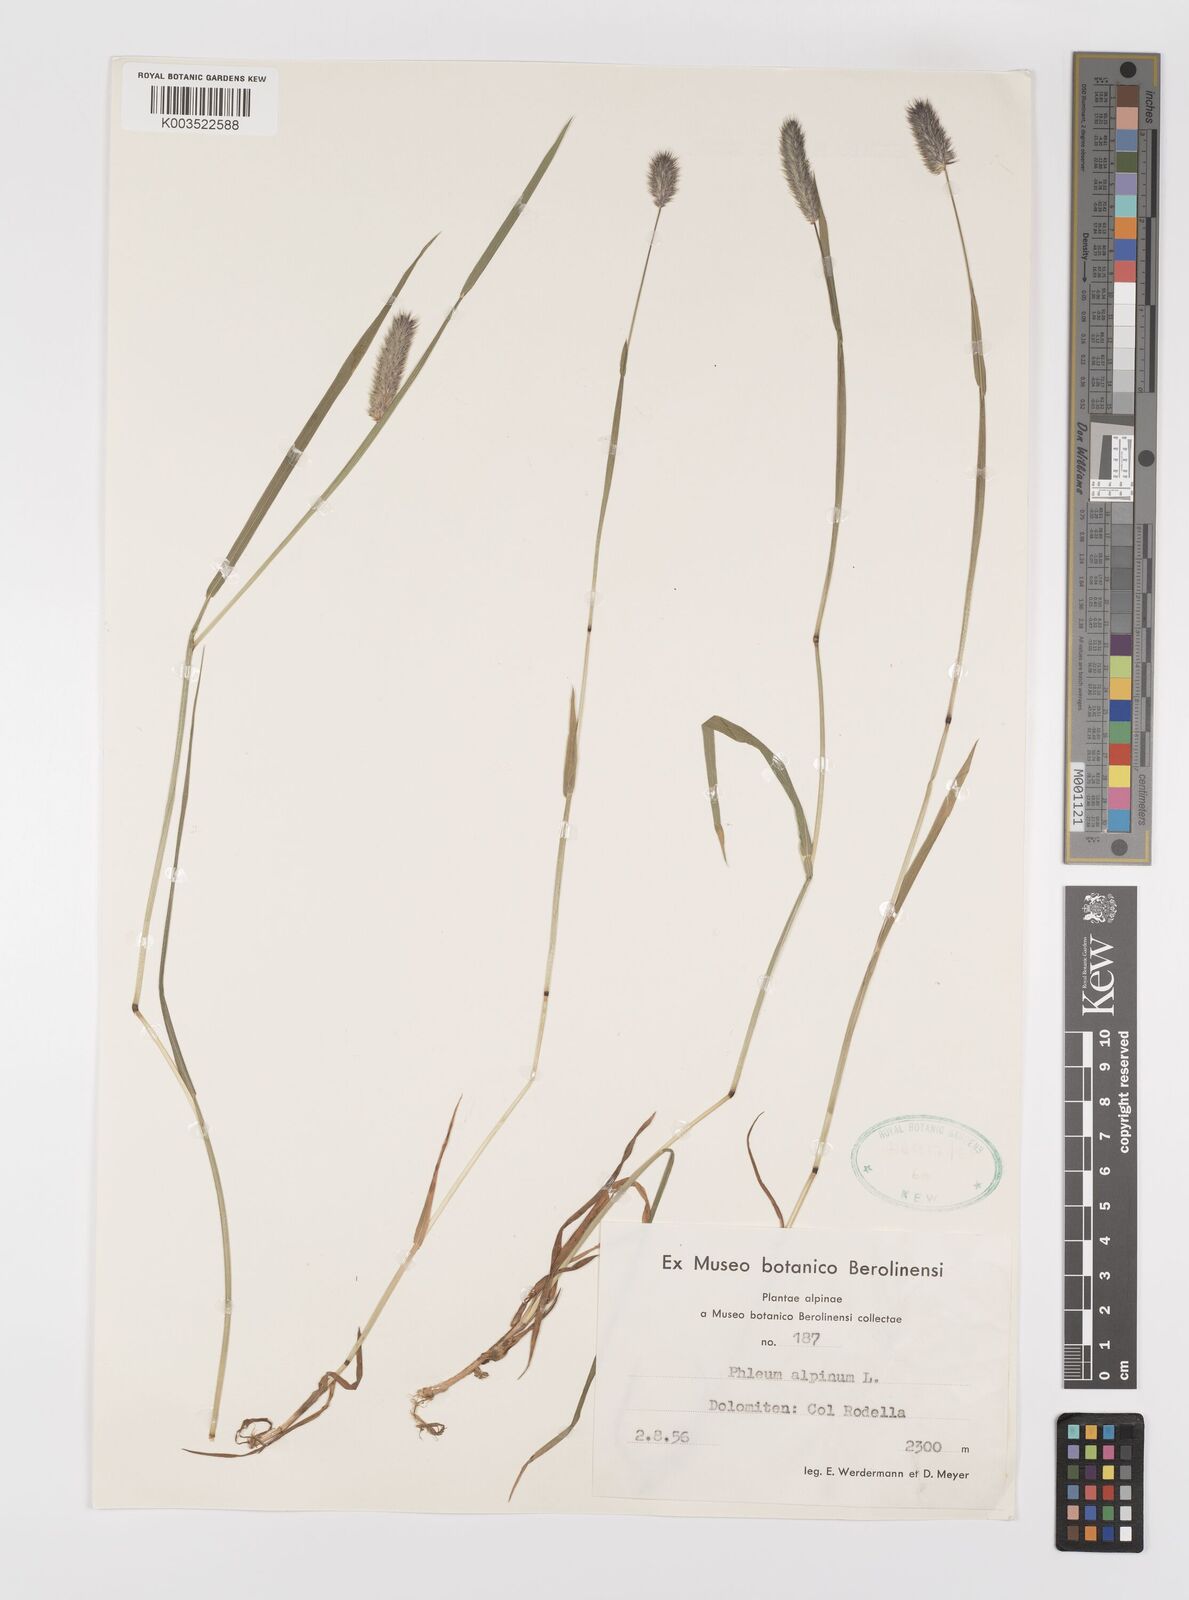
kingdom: Plantae
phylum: Tracheophyta
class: Liliopsida
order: Poales
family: Poaceae
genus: Phleum
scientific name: Phleum alpinum
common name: Alpine cat's-tail
